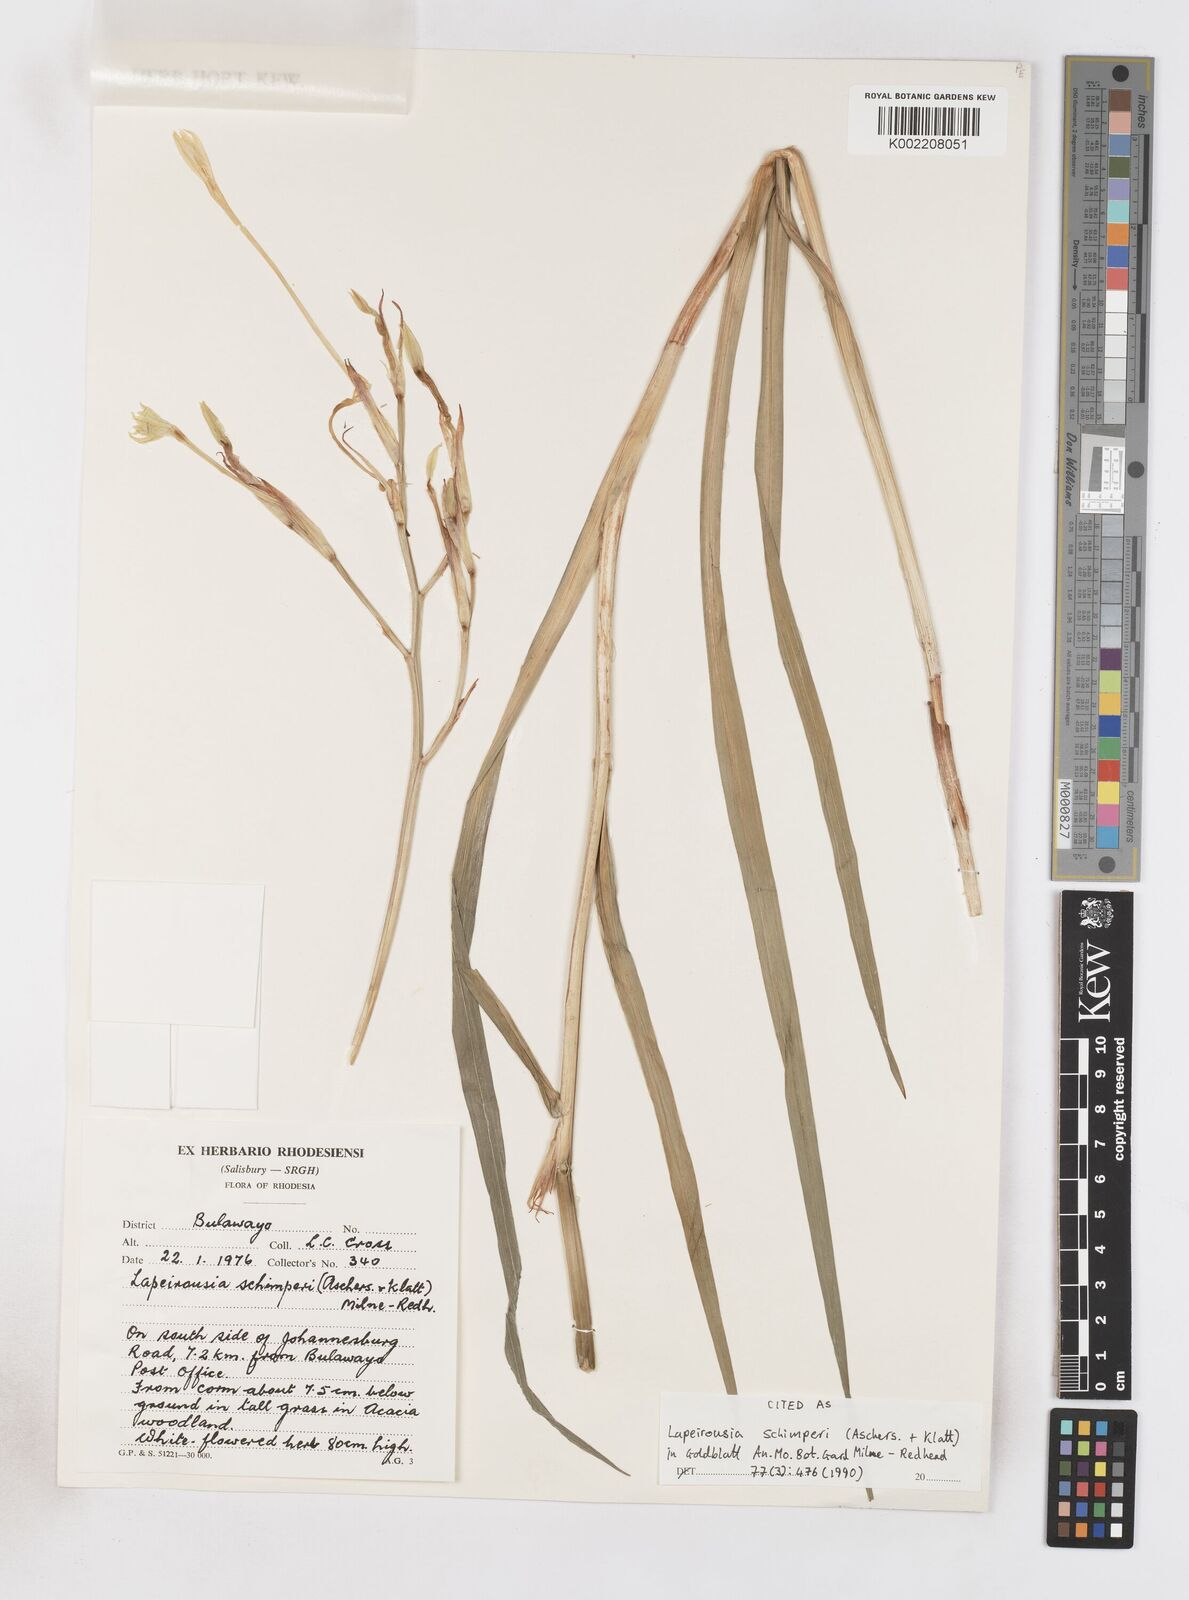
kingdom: Plantae
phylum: Tracheophyta
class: Liliopsida
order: Asparagales
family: Iridaceae
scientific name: Iridaceae
